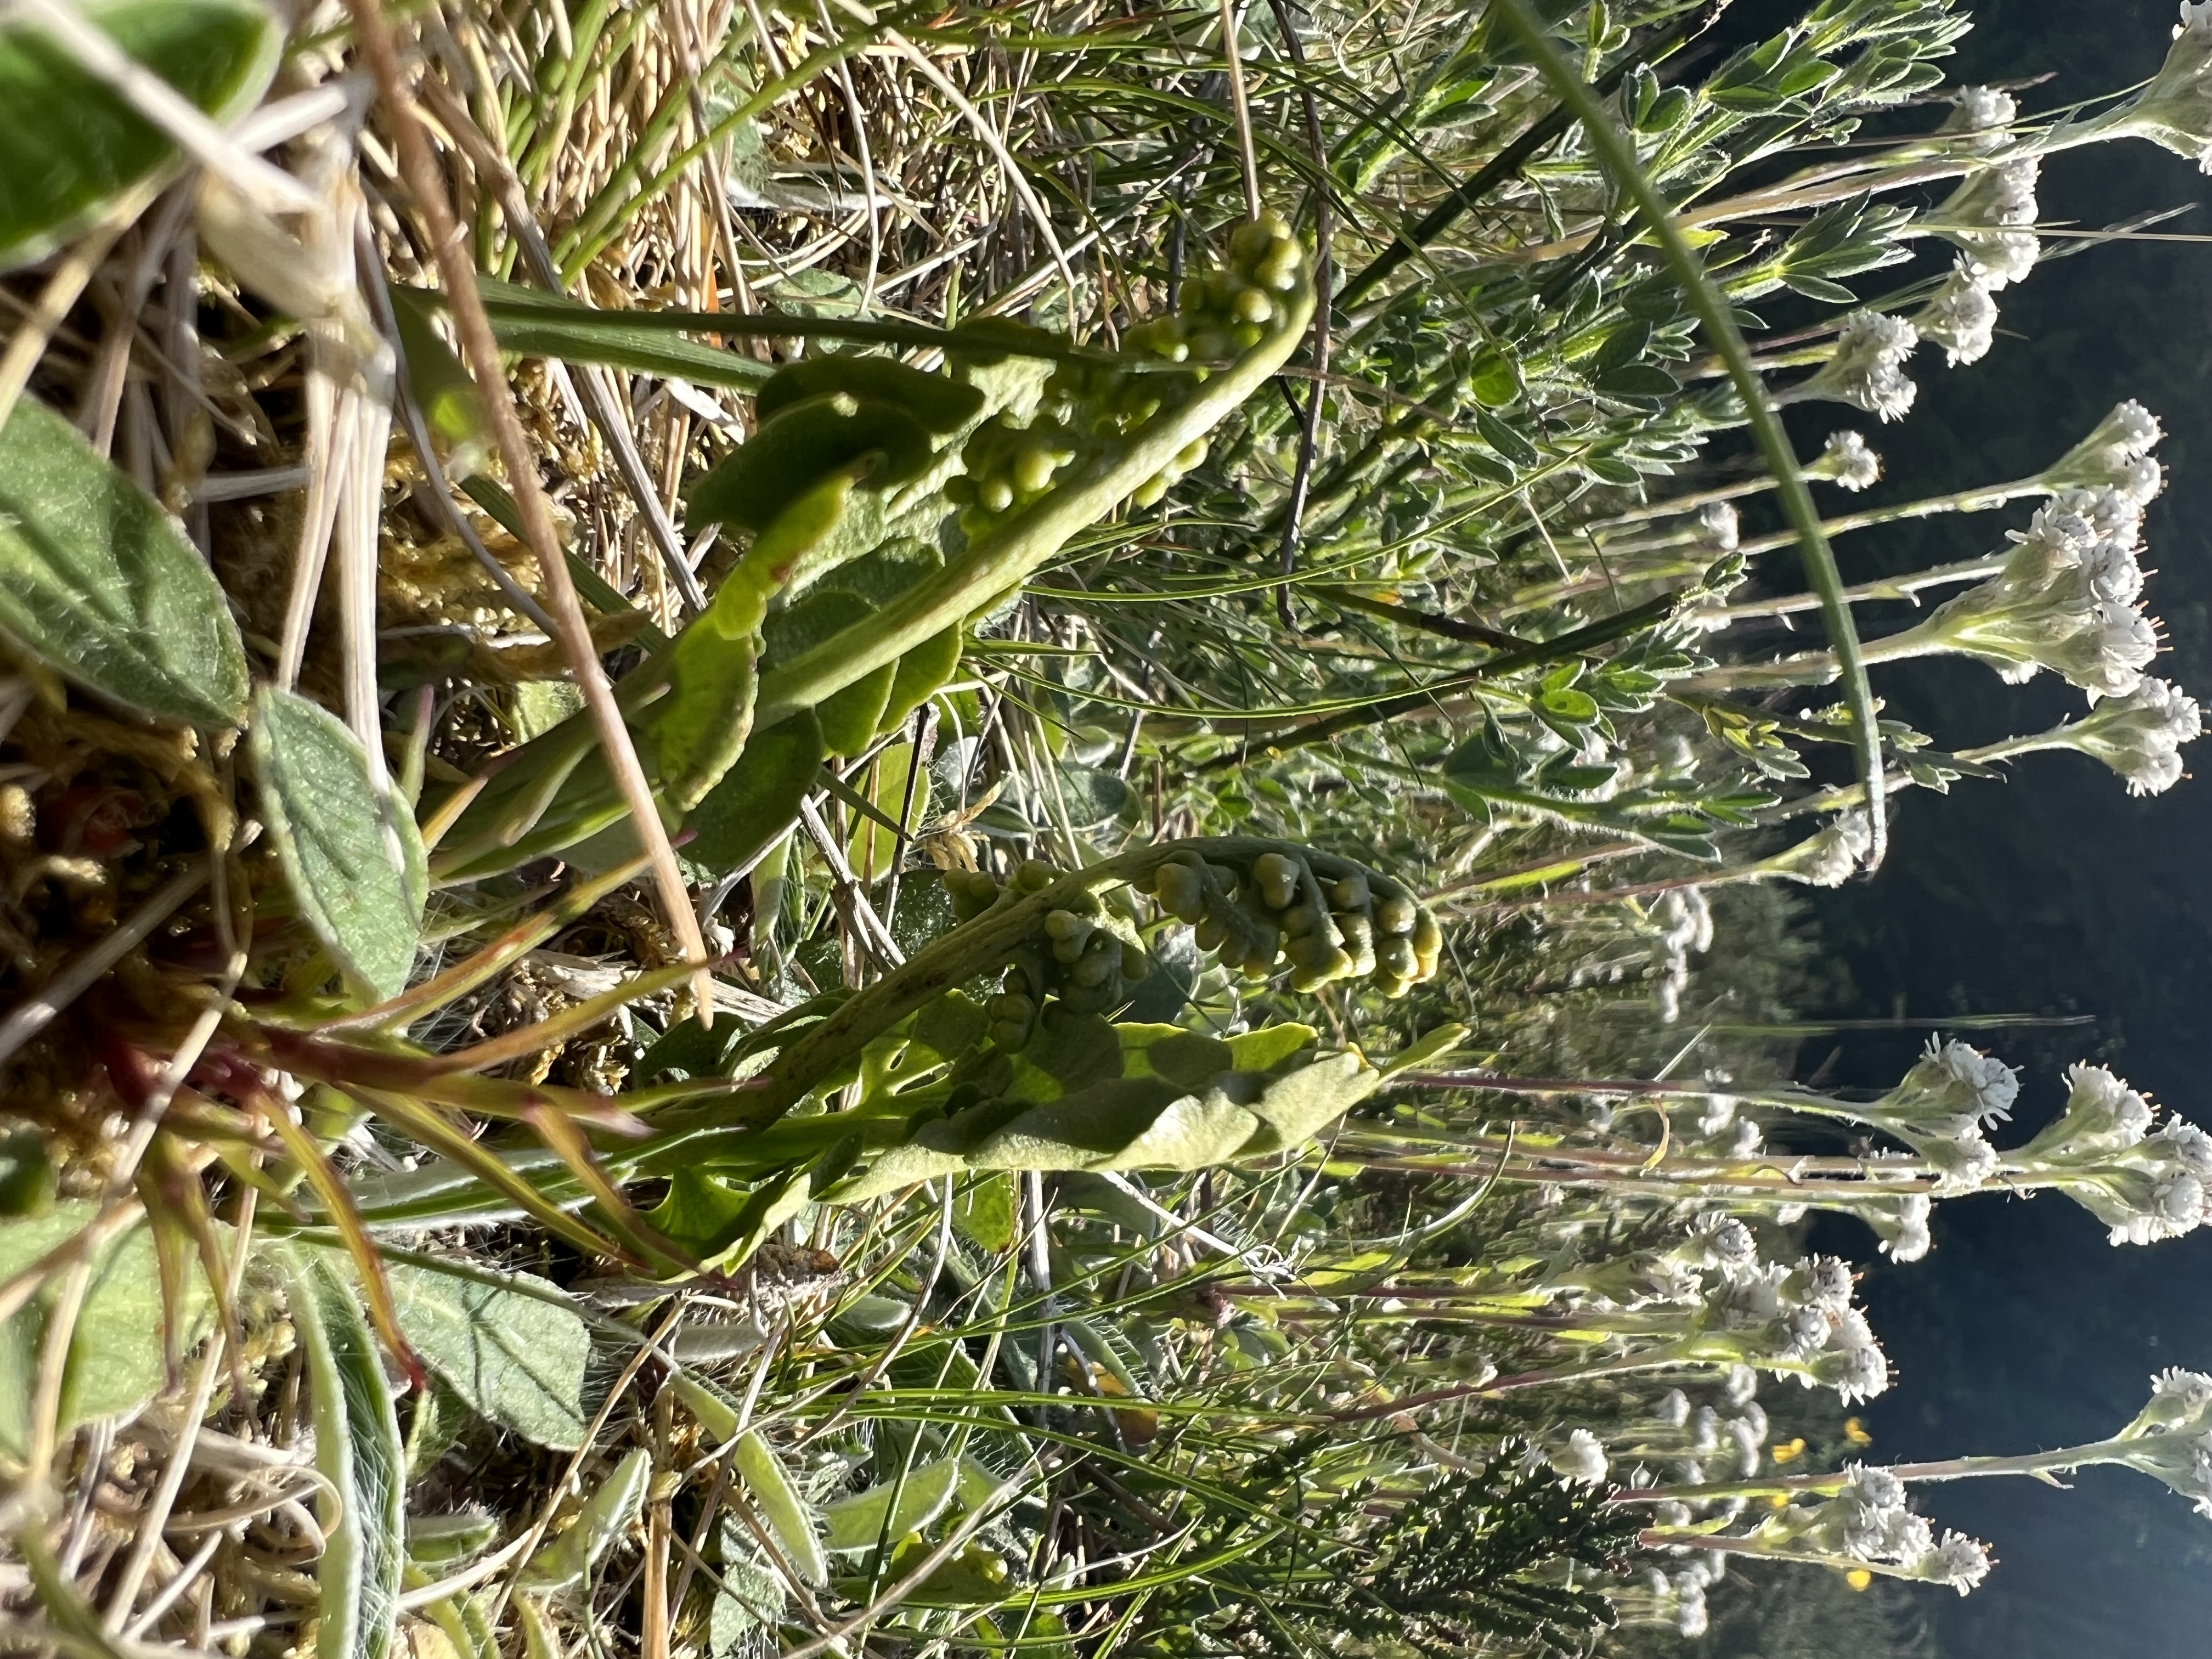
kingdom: Plantae
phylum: Tracheophyta
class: Polypodiopsida
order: Ophioglossales
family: Ophioglossaceae
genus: Botrychium
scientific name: Botrychium lunaria
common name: Almindelig månerude
